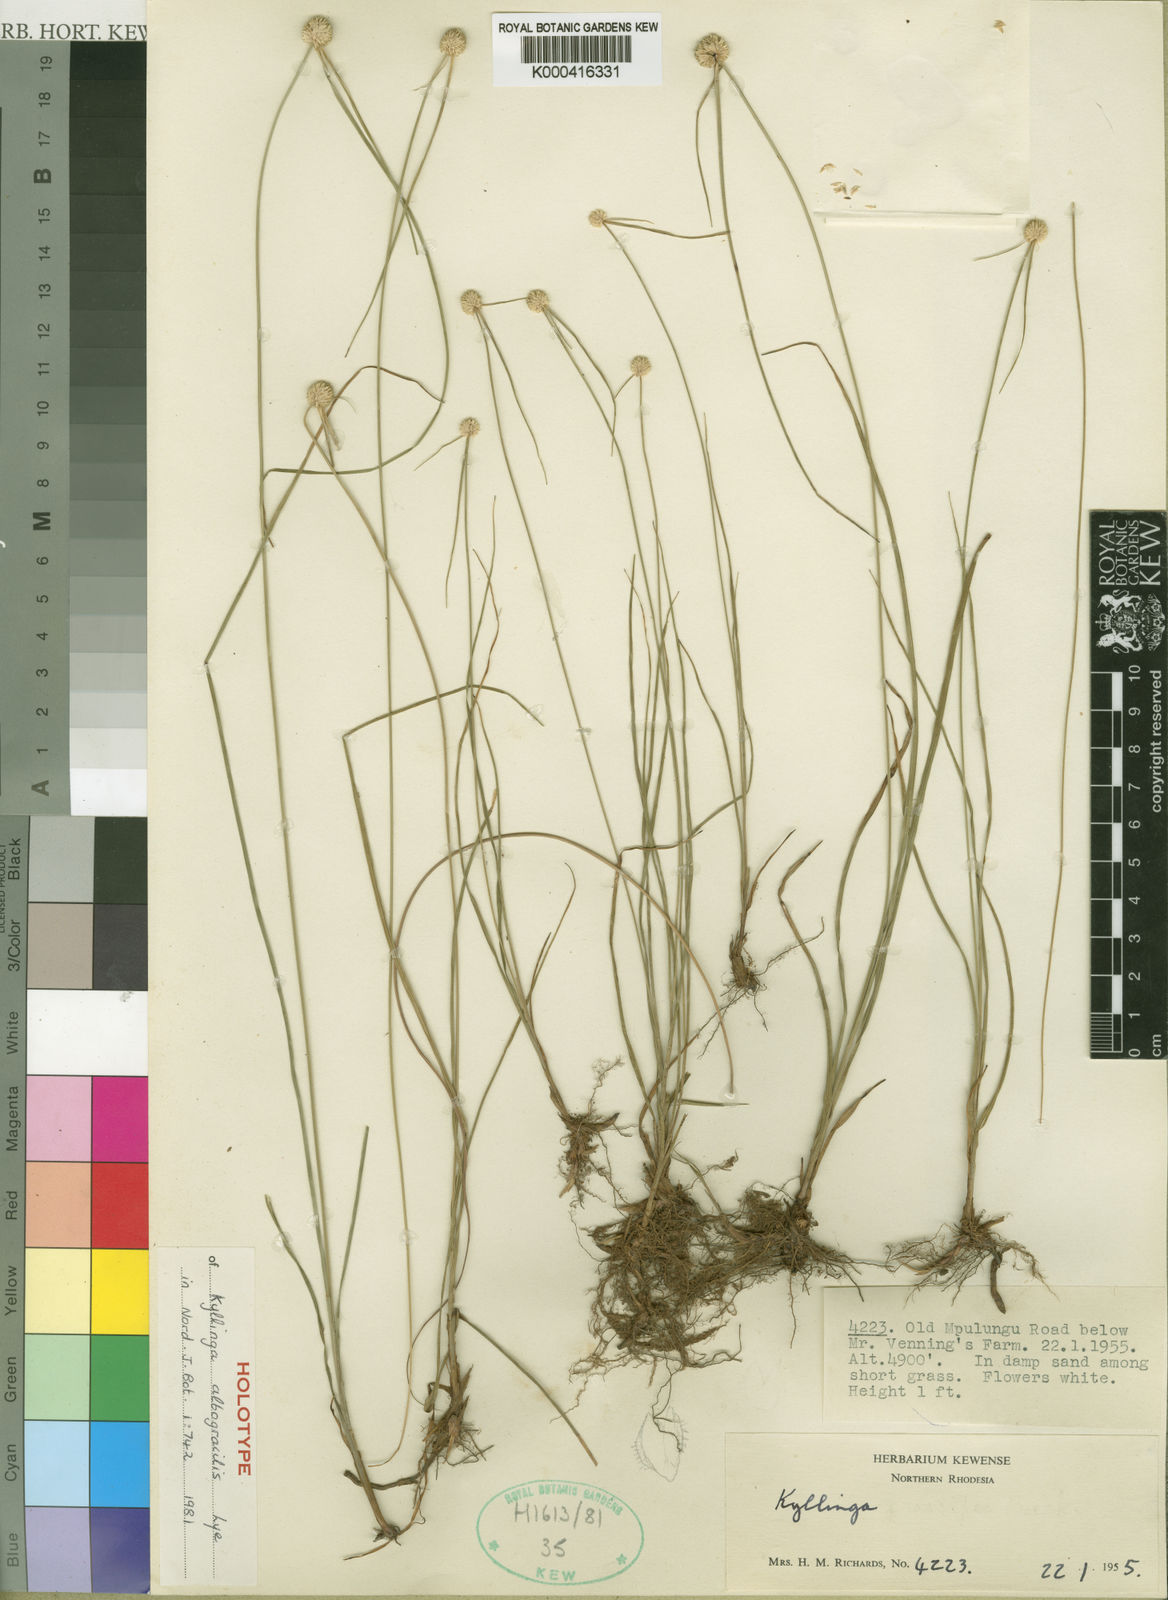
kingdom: Plantae
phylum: Tracheophyta
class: Liliopsida
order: Poales
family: Cyperaceae
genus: Cyperus
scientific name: Cyperus albogracilis
